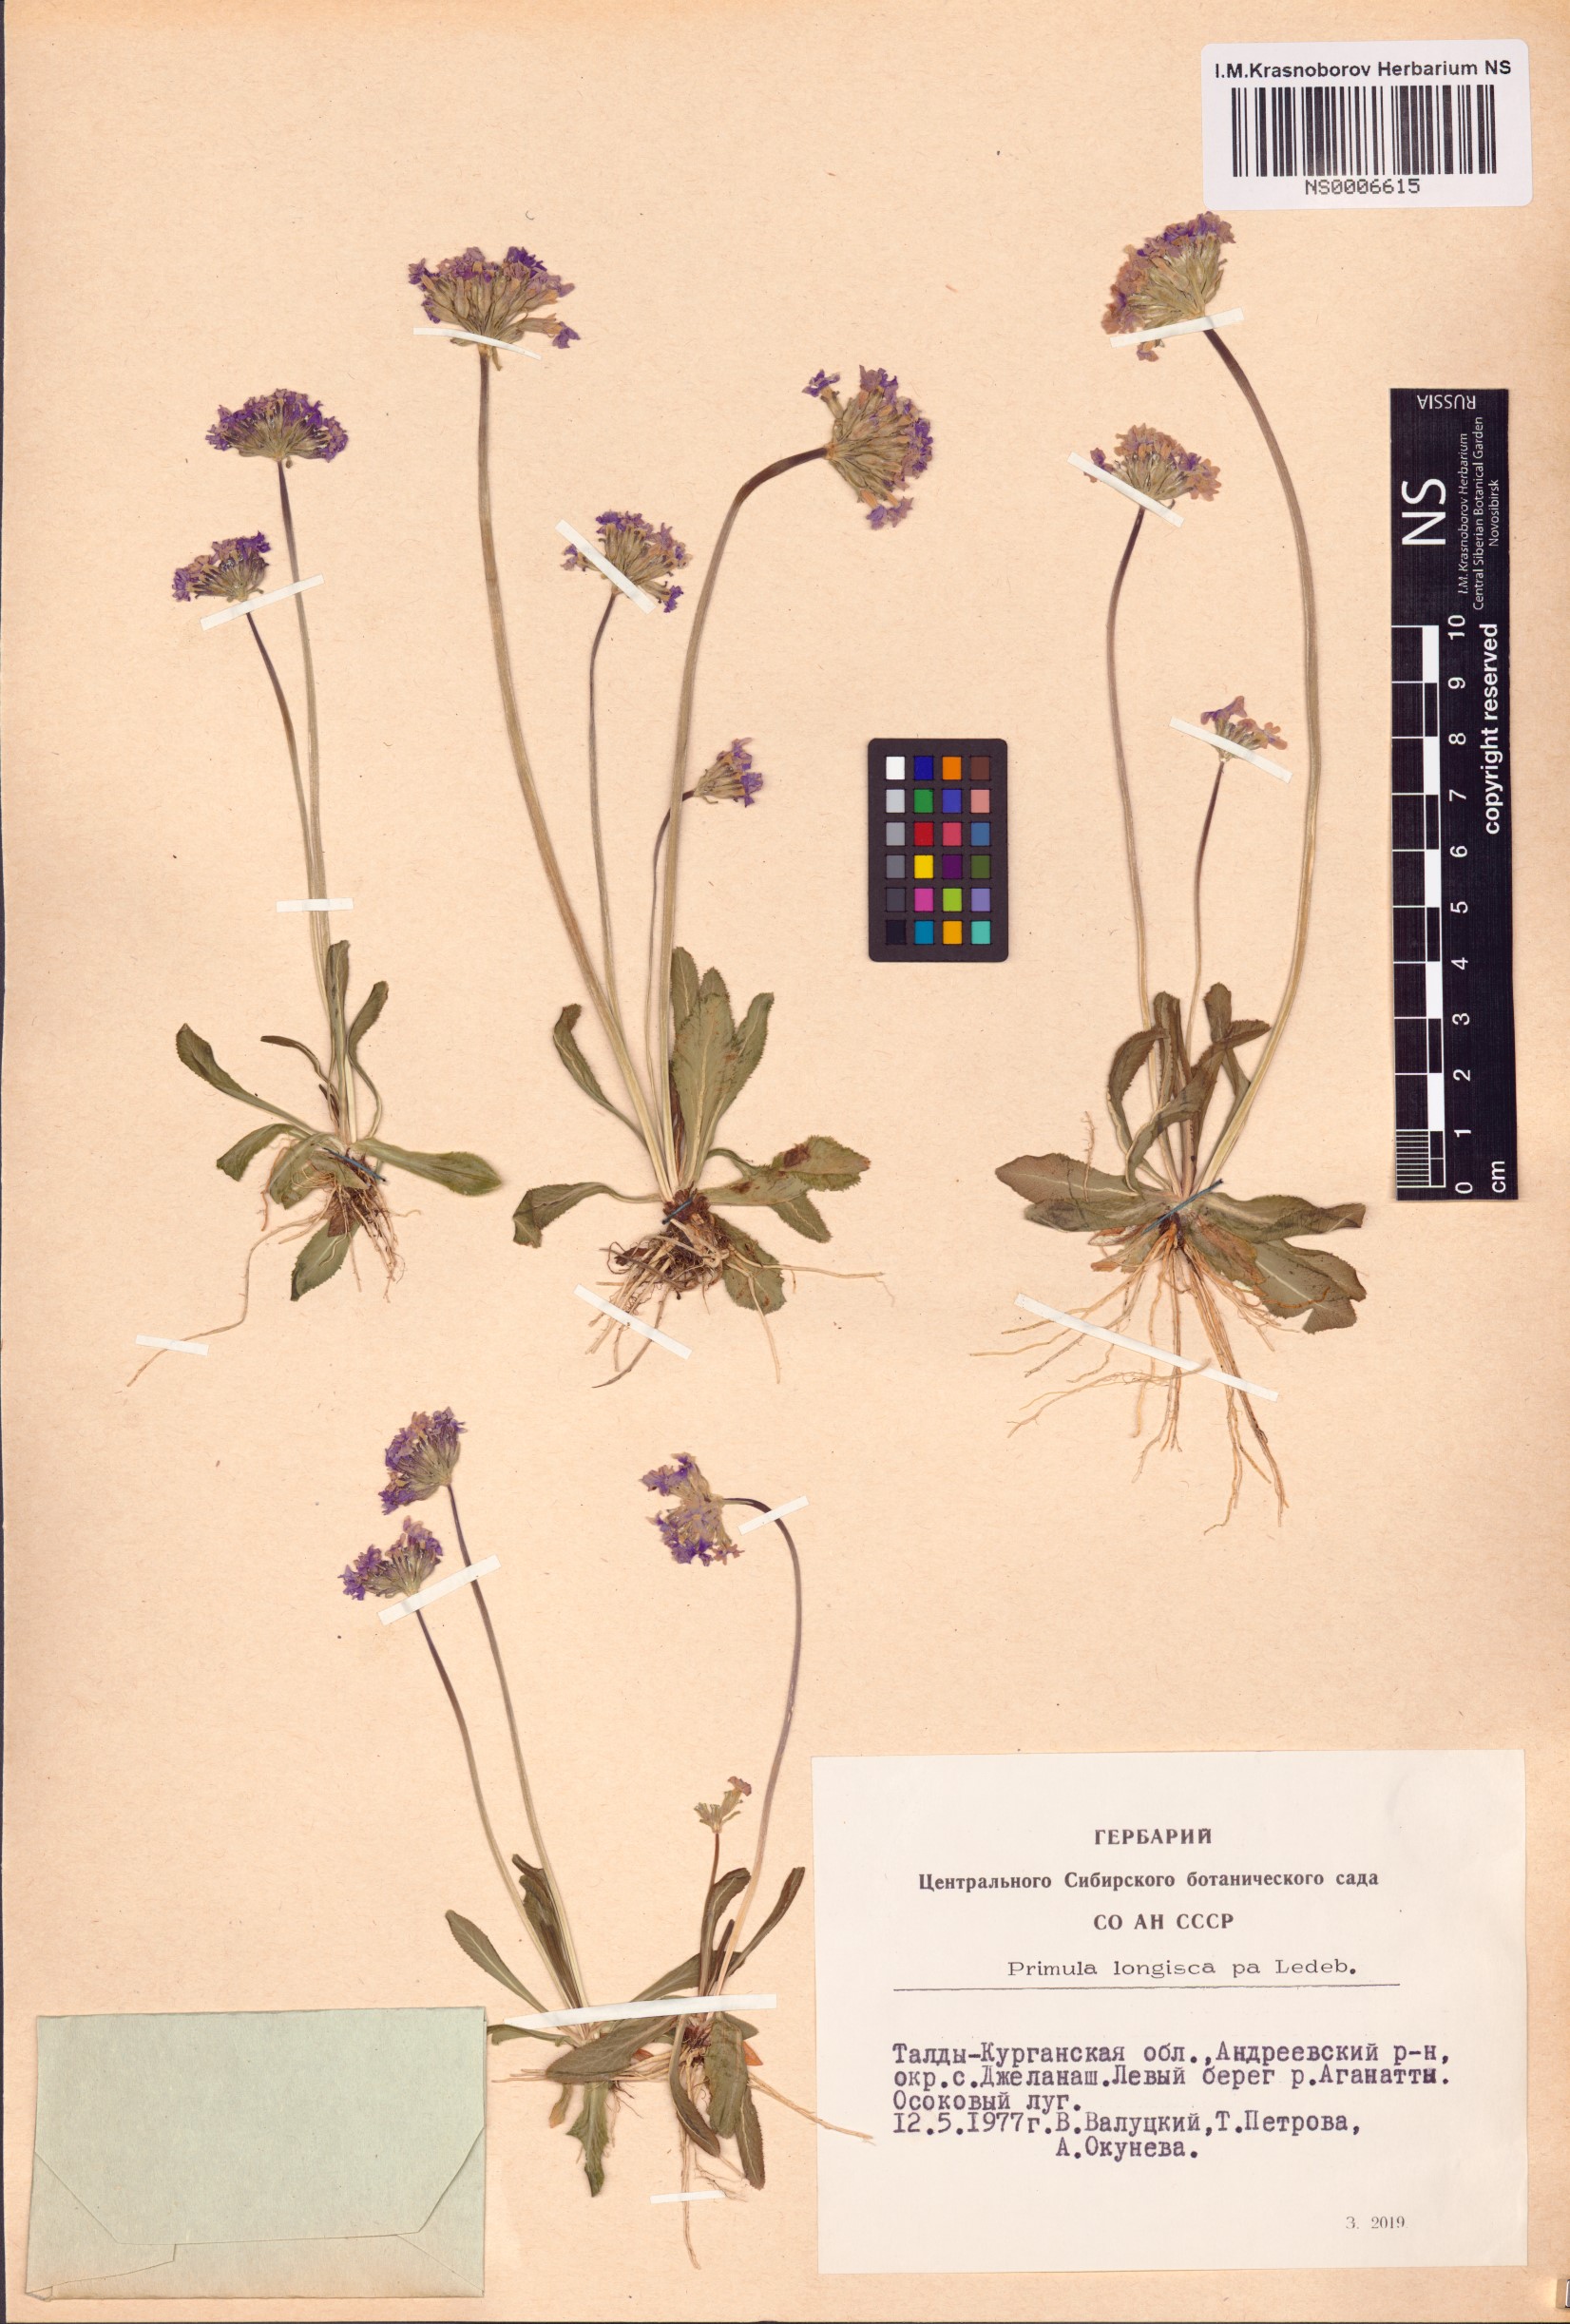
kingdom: Plantae
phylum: Tracheophyta
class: Magnoliopsida
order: Ericales
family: Primulaceae
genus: Primula
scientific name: Primula longiscapa
